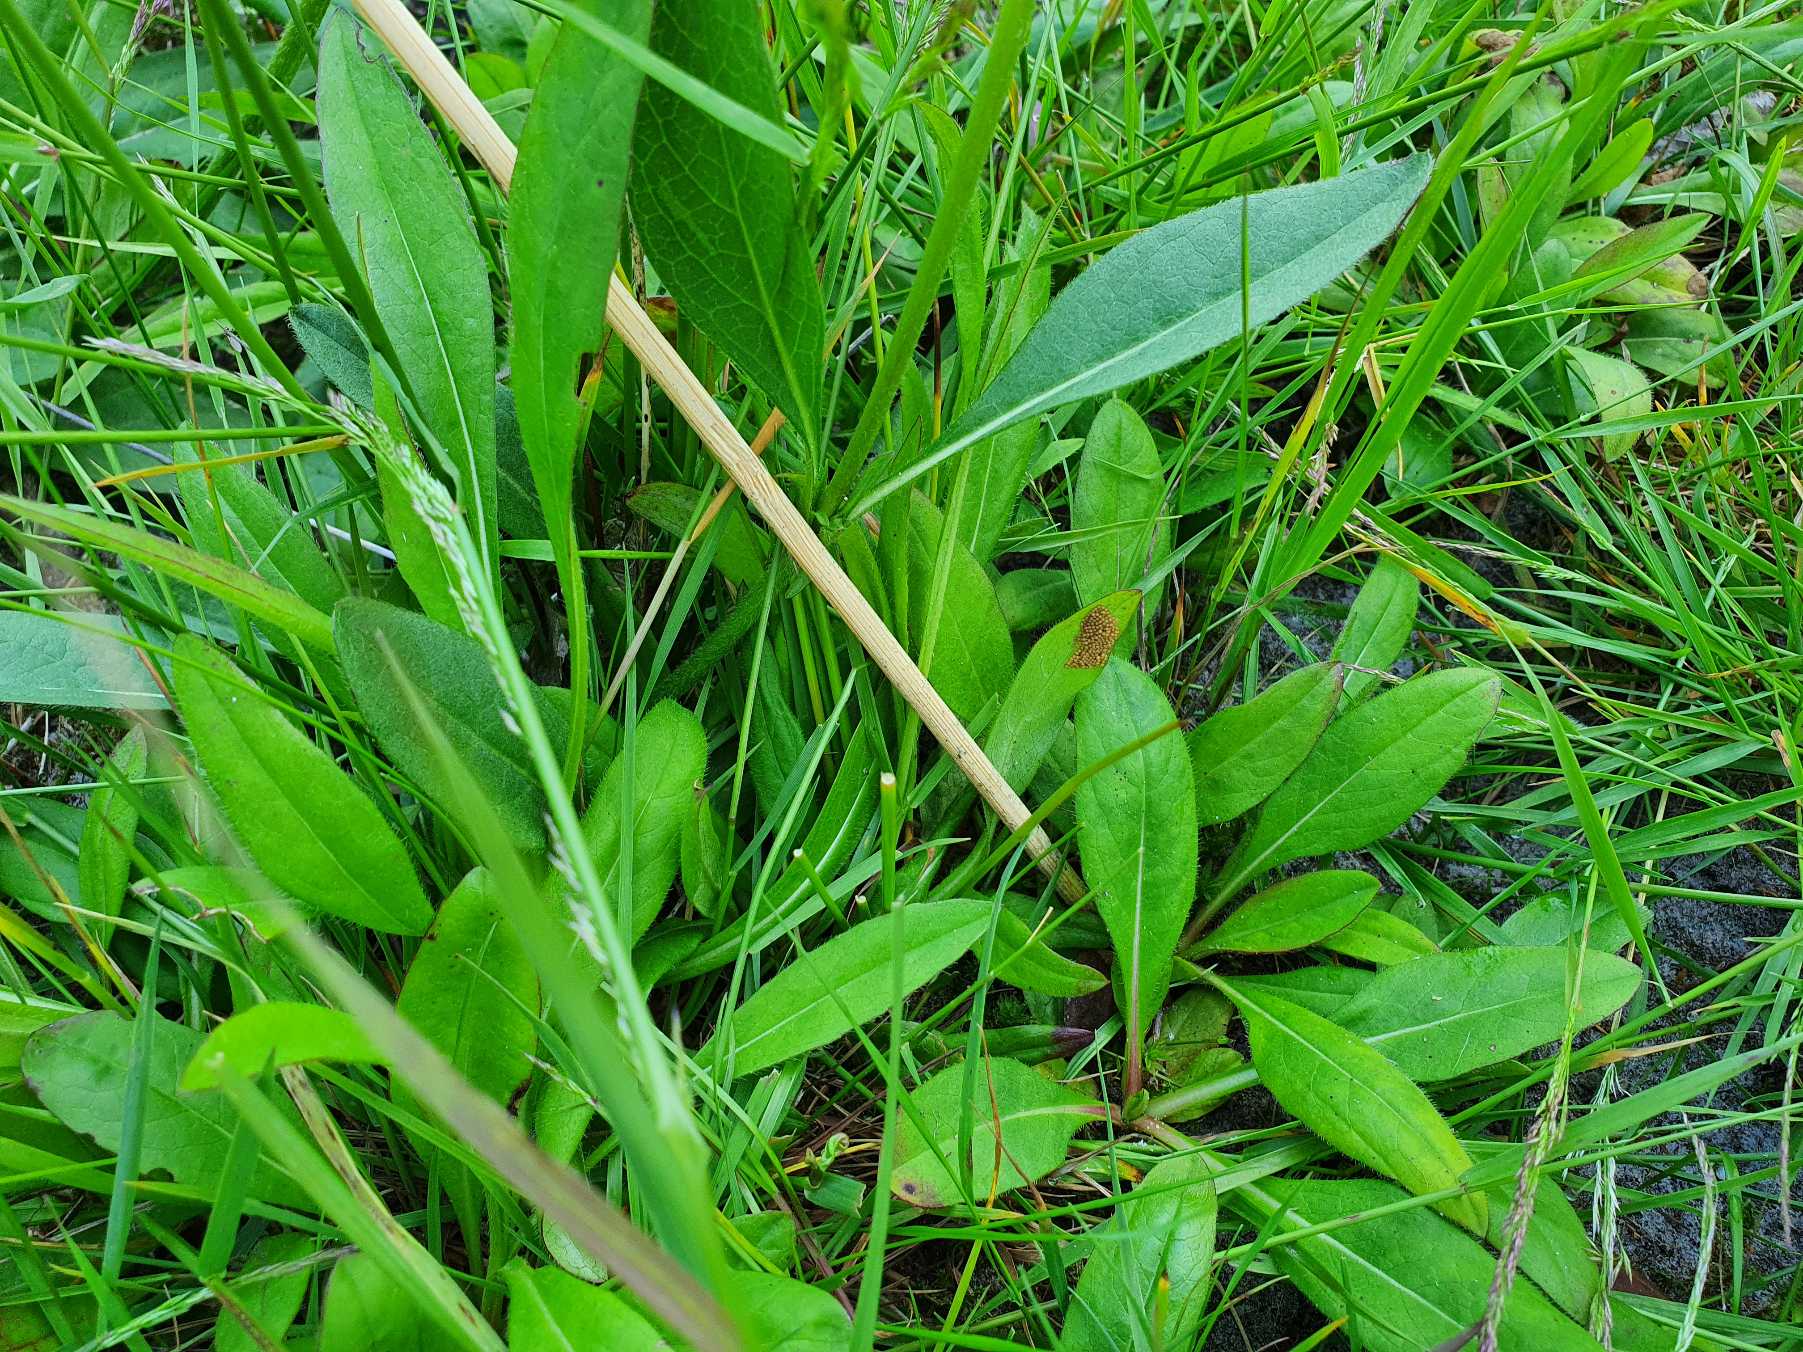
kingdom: Plantae
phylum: Tracheophyta
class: Magnoliopsida
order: Dipsacales
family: Caprifoliaceae
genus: Succisa
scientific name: Succisa pratensis
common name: Djævelsbid
